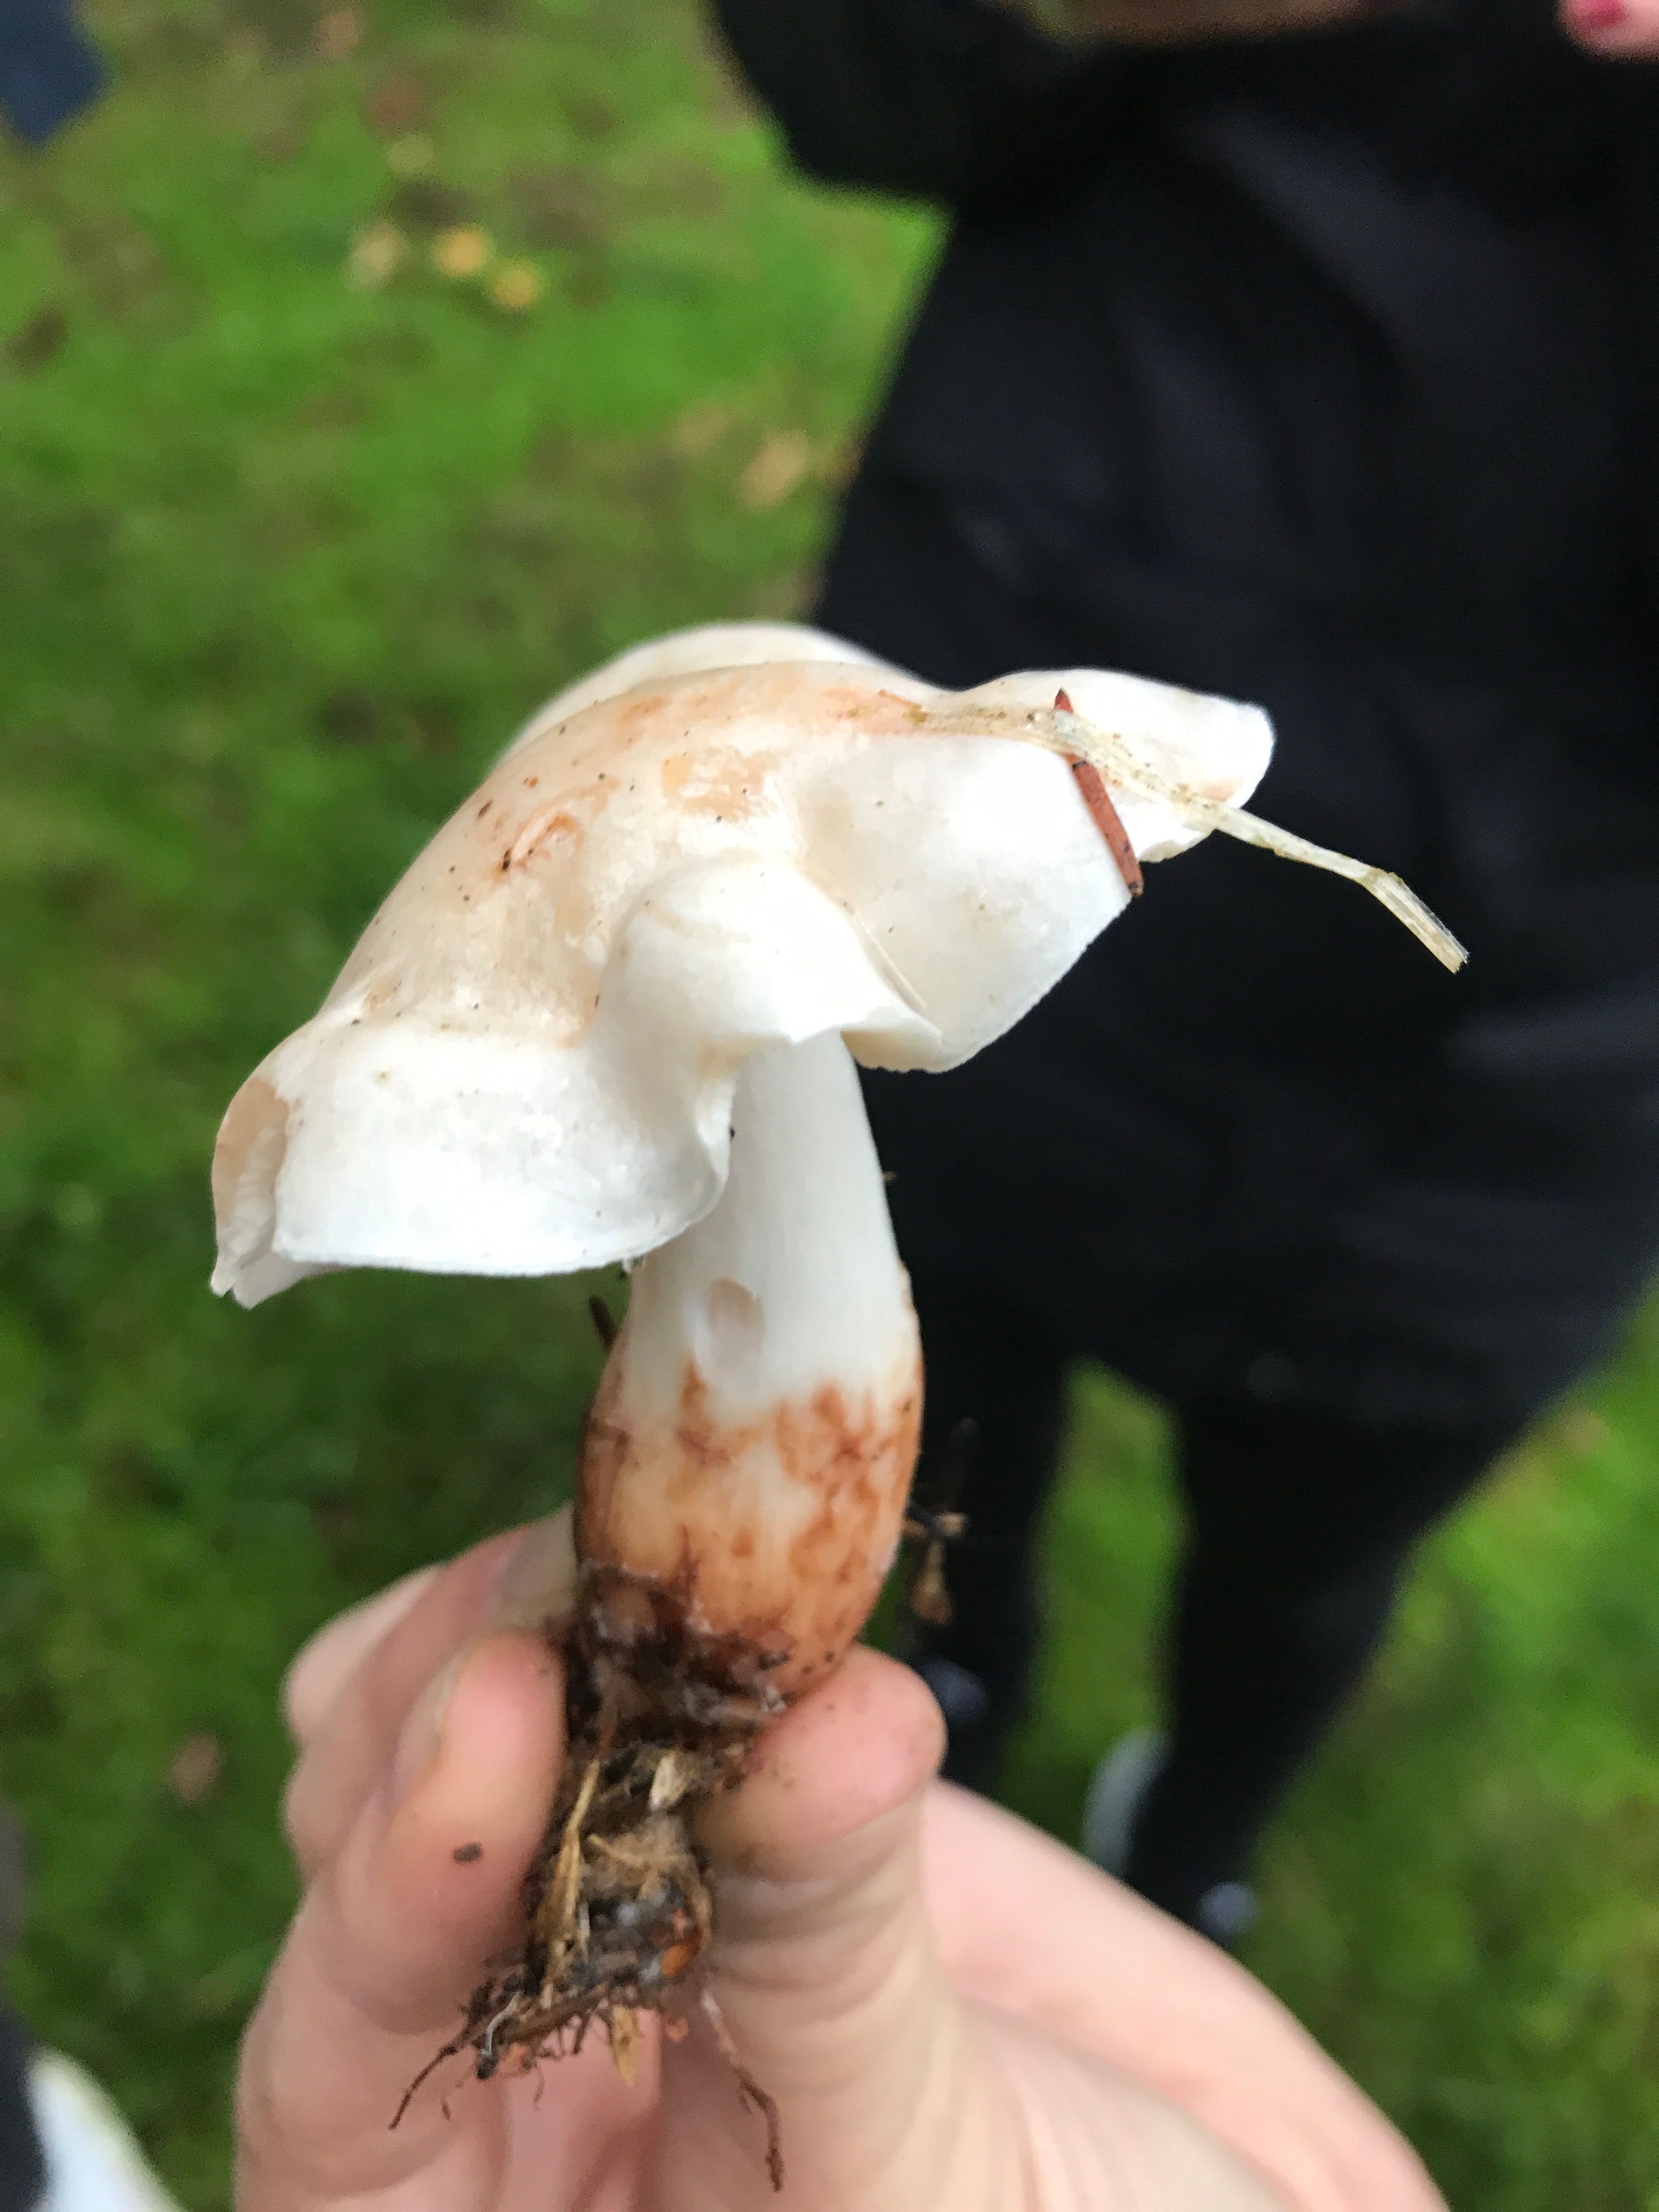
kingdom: Fungi
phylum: Basidiomycota
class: Agaricomycetes
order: Agaricales
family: Omphalotaceae
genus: Rhodocollybia
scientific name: Rhodocollybia maculata
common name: plettet fladhat
